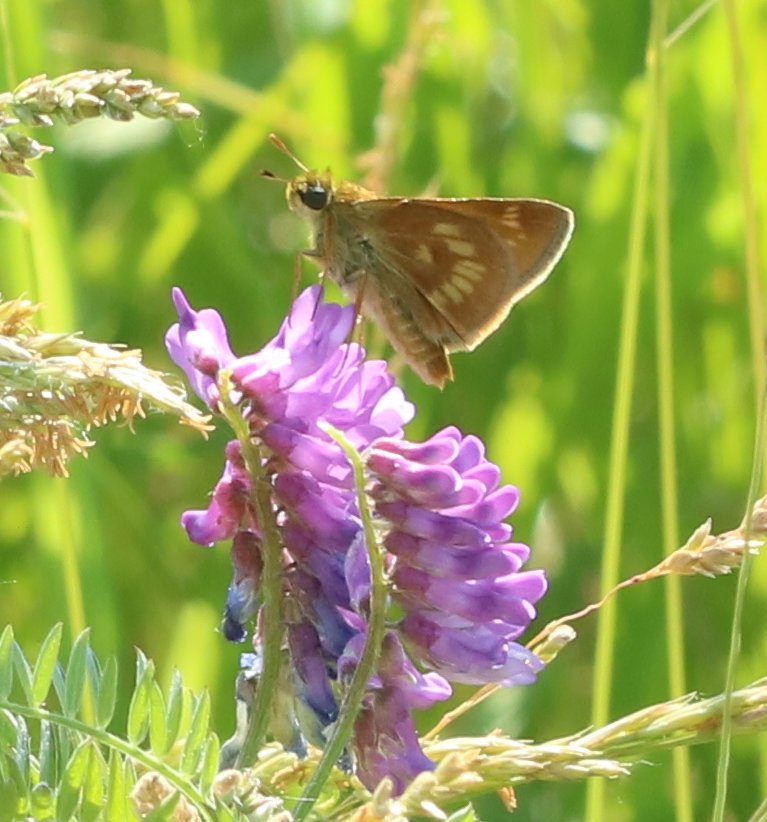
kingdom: Animalia
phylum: Arthropoda
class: Insecta
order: Lepidoptera
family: Hesperiidae
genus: Polites
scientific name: Polites
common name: Long Dash Skipper
